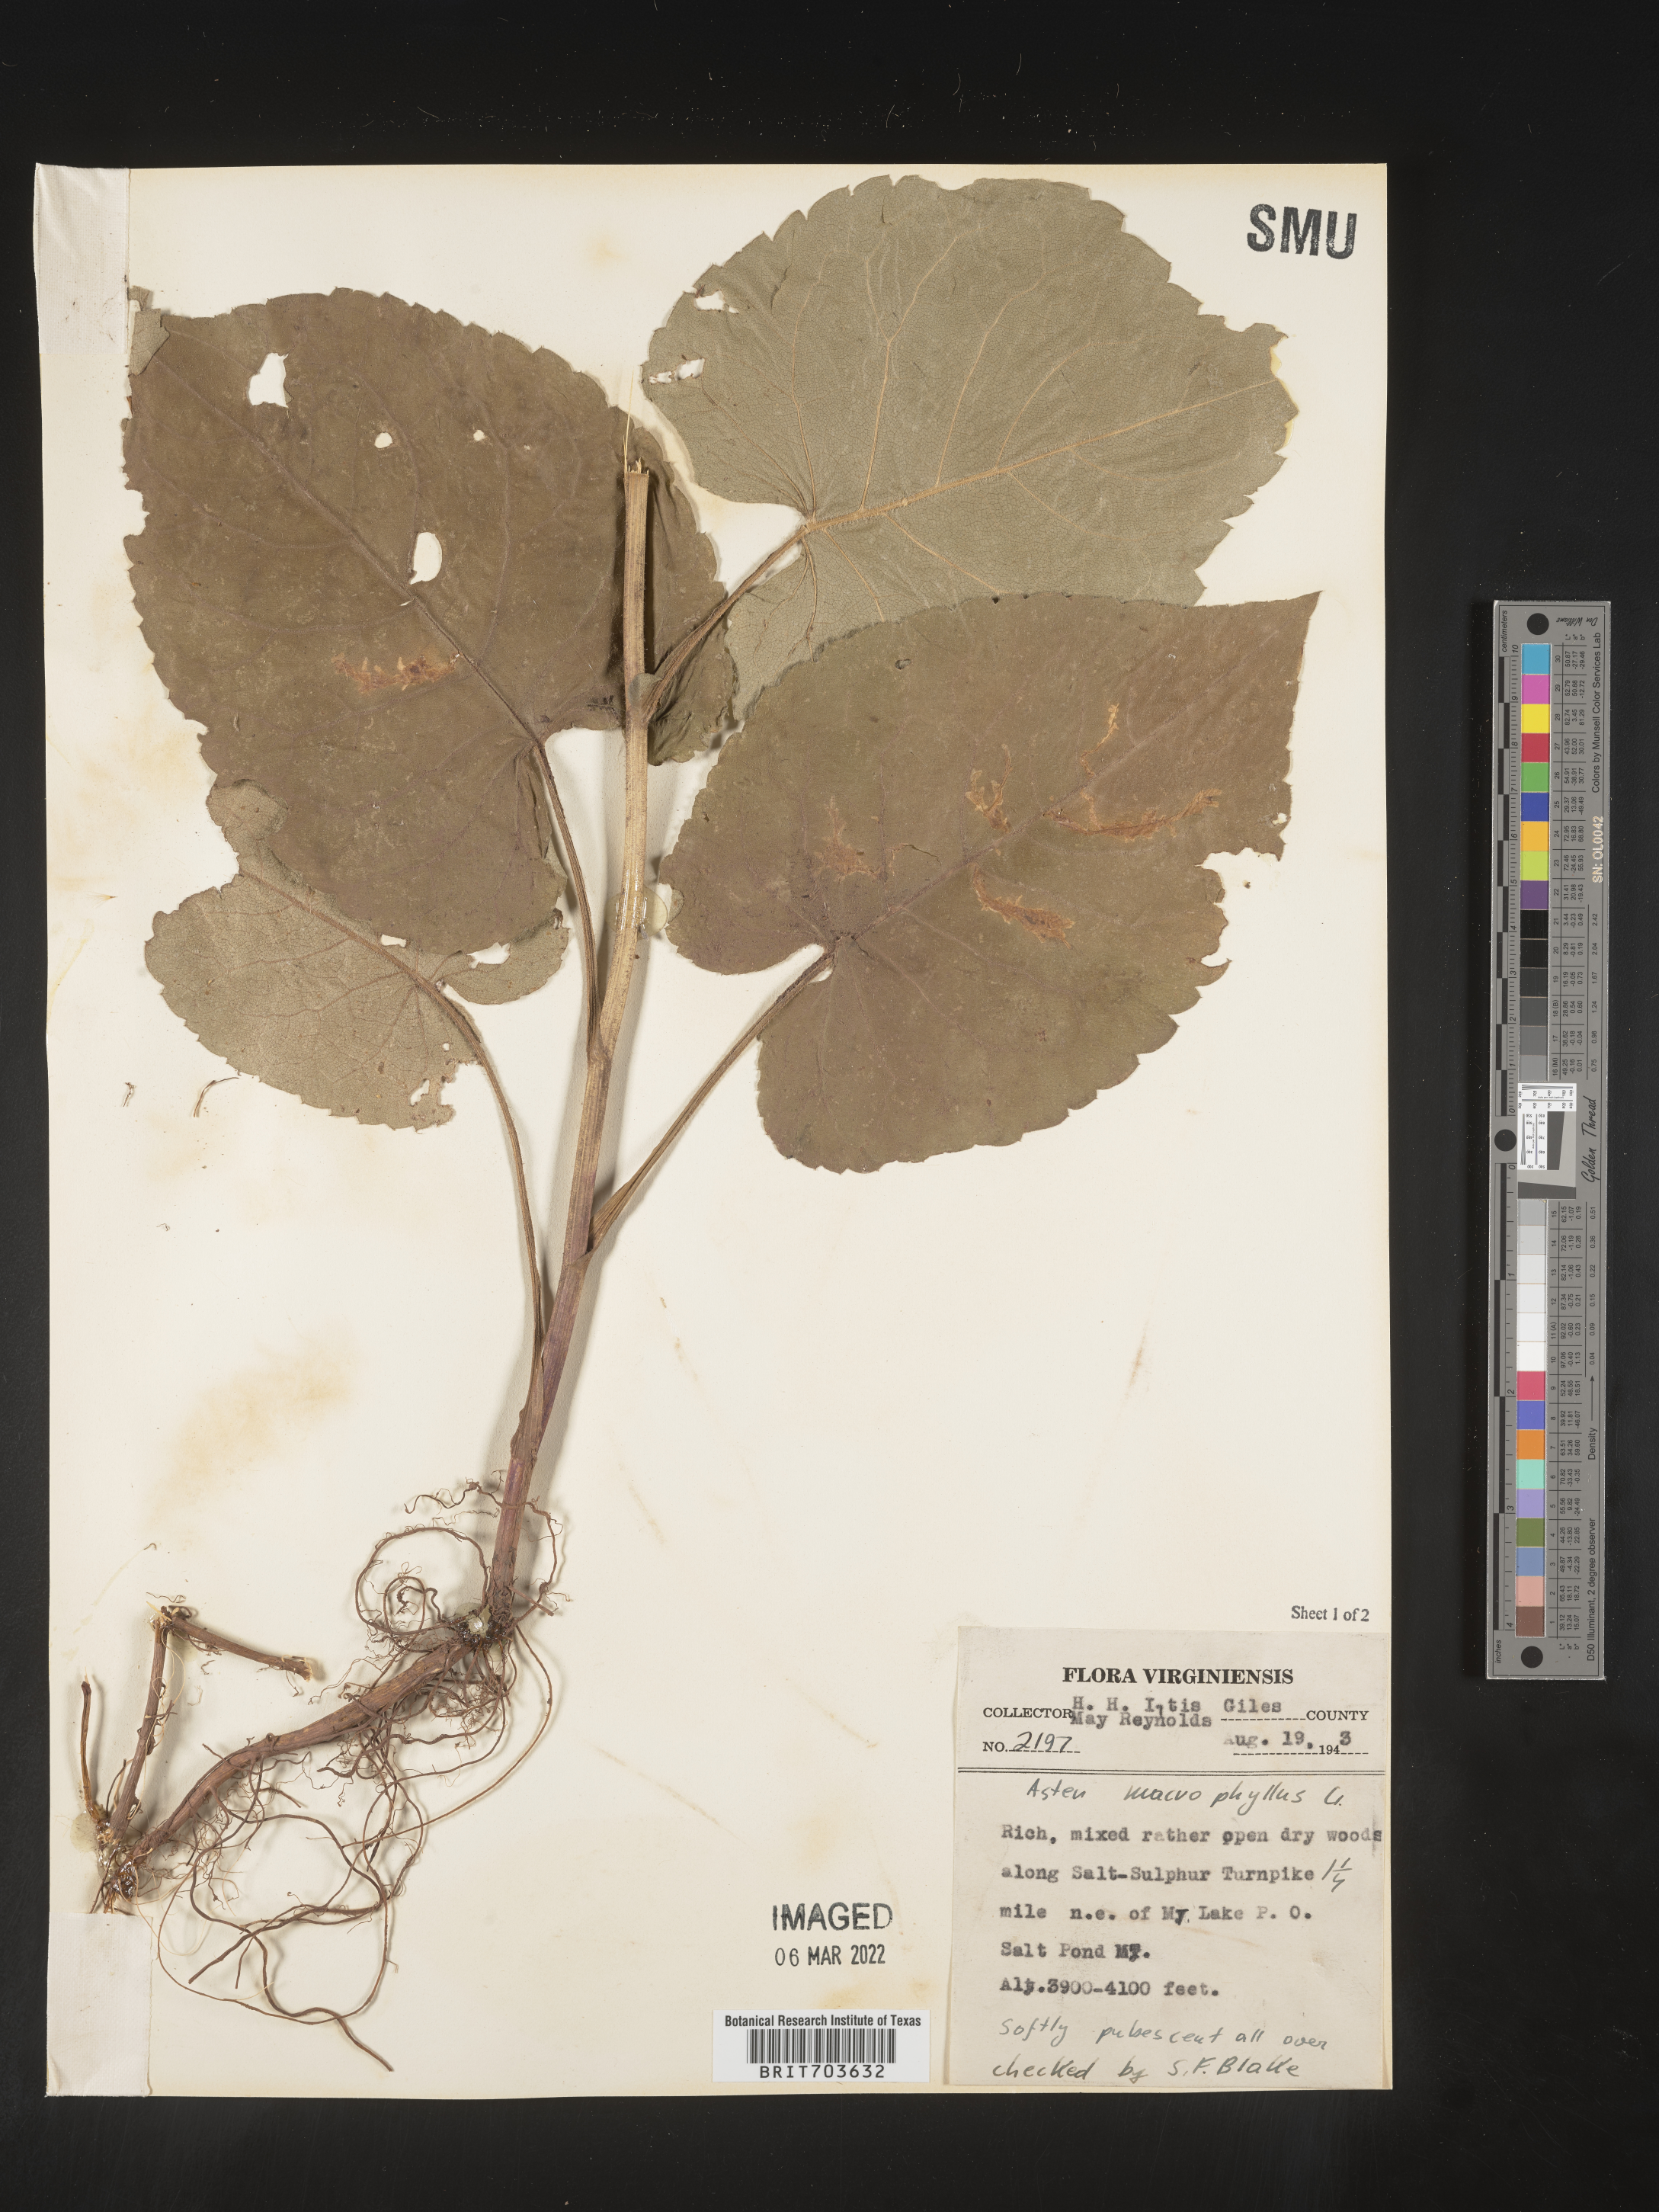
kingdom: Plantae
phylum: Tracheophyta
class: Magnoliopsida
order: Asterales
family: Asteraceae
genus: Eurybia
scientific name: Eurybia macrophylla
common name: Big-leaved aster
